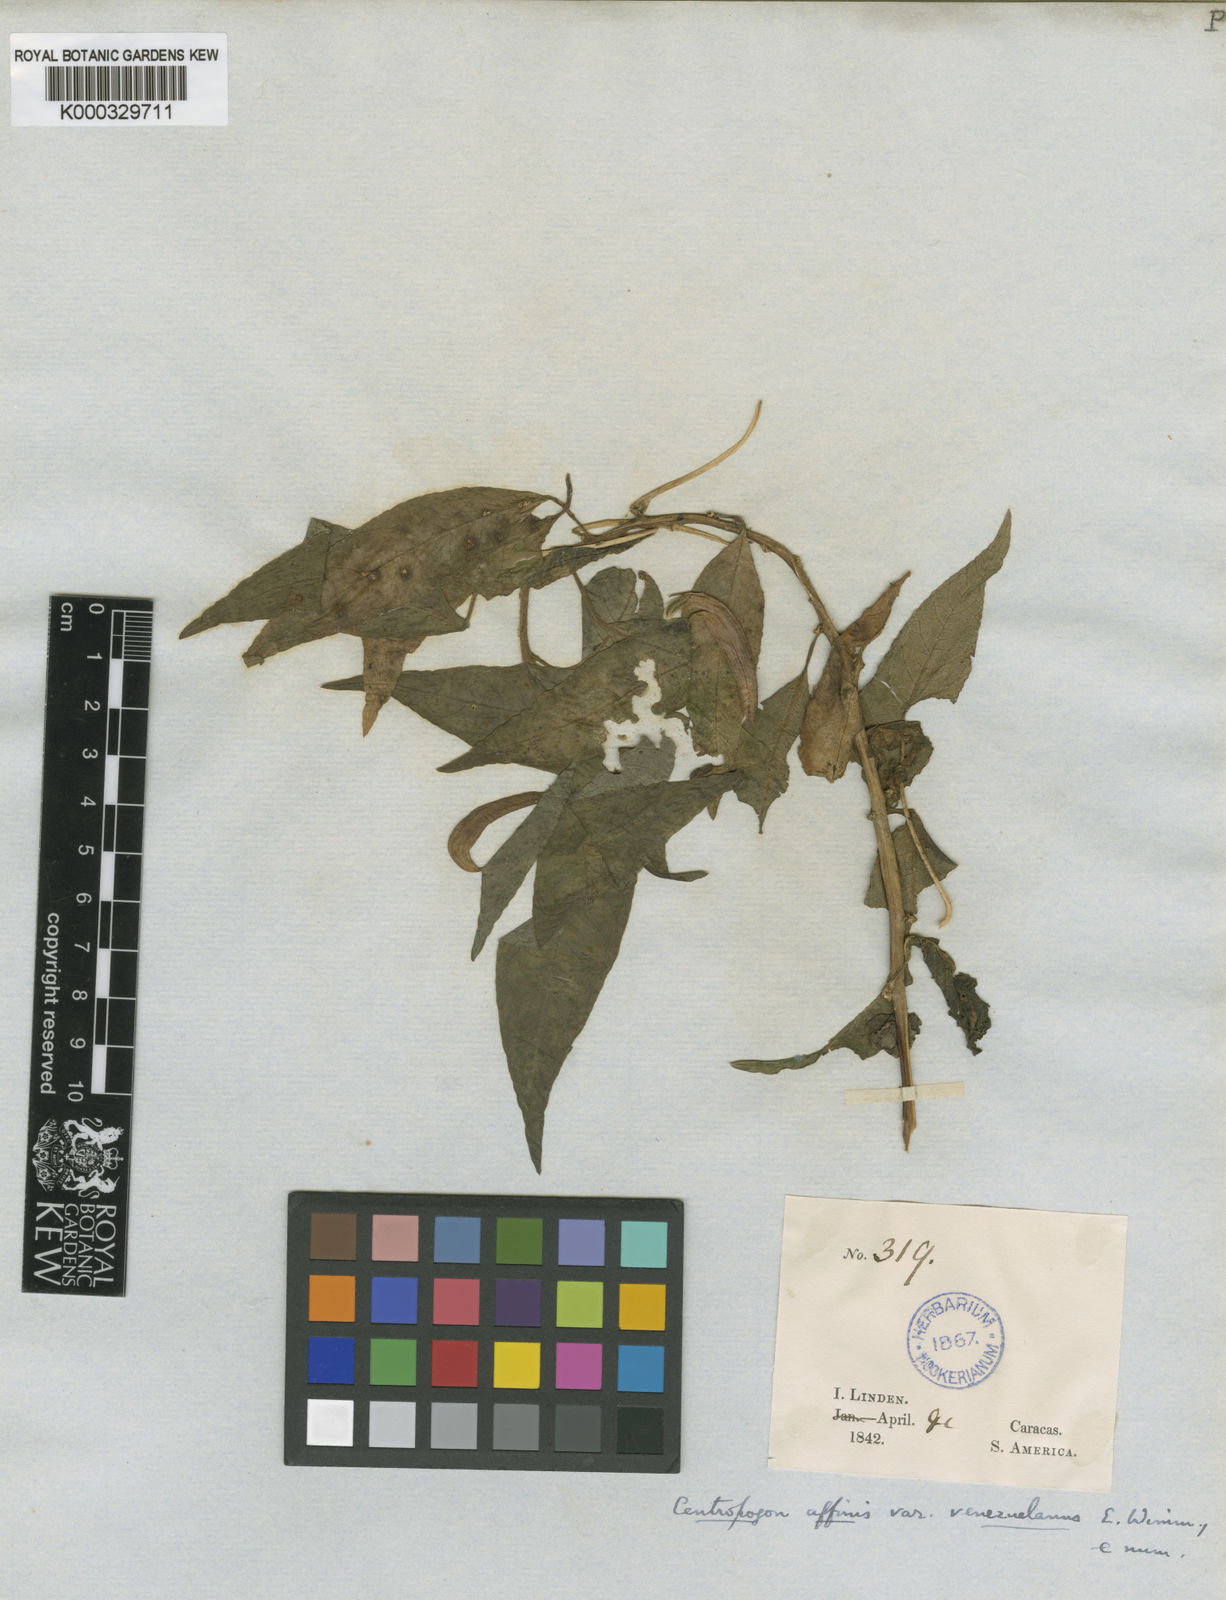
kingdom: Plantae
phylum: Tracheophyta
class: Magnoliopsida
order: Asterales
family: Campanulaceae
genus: Centropogon
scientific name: Centropogon grandidentatus
